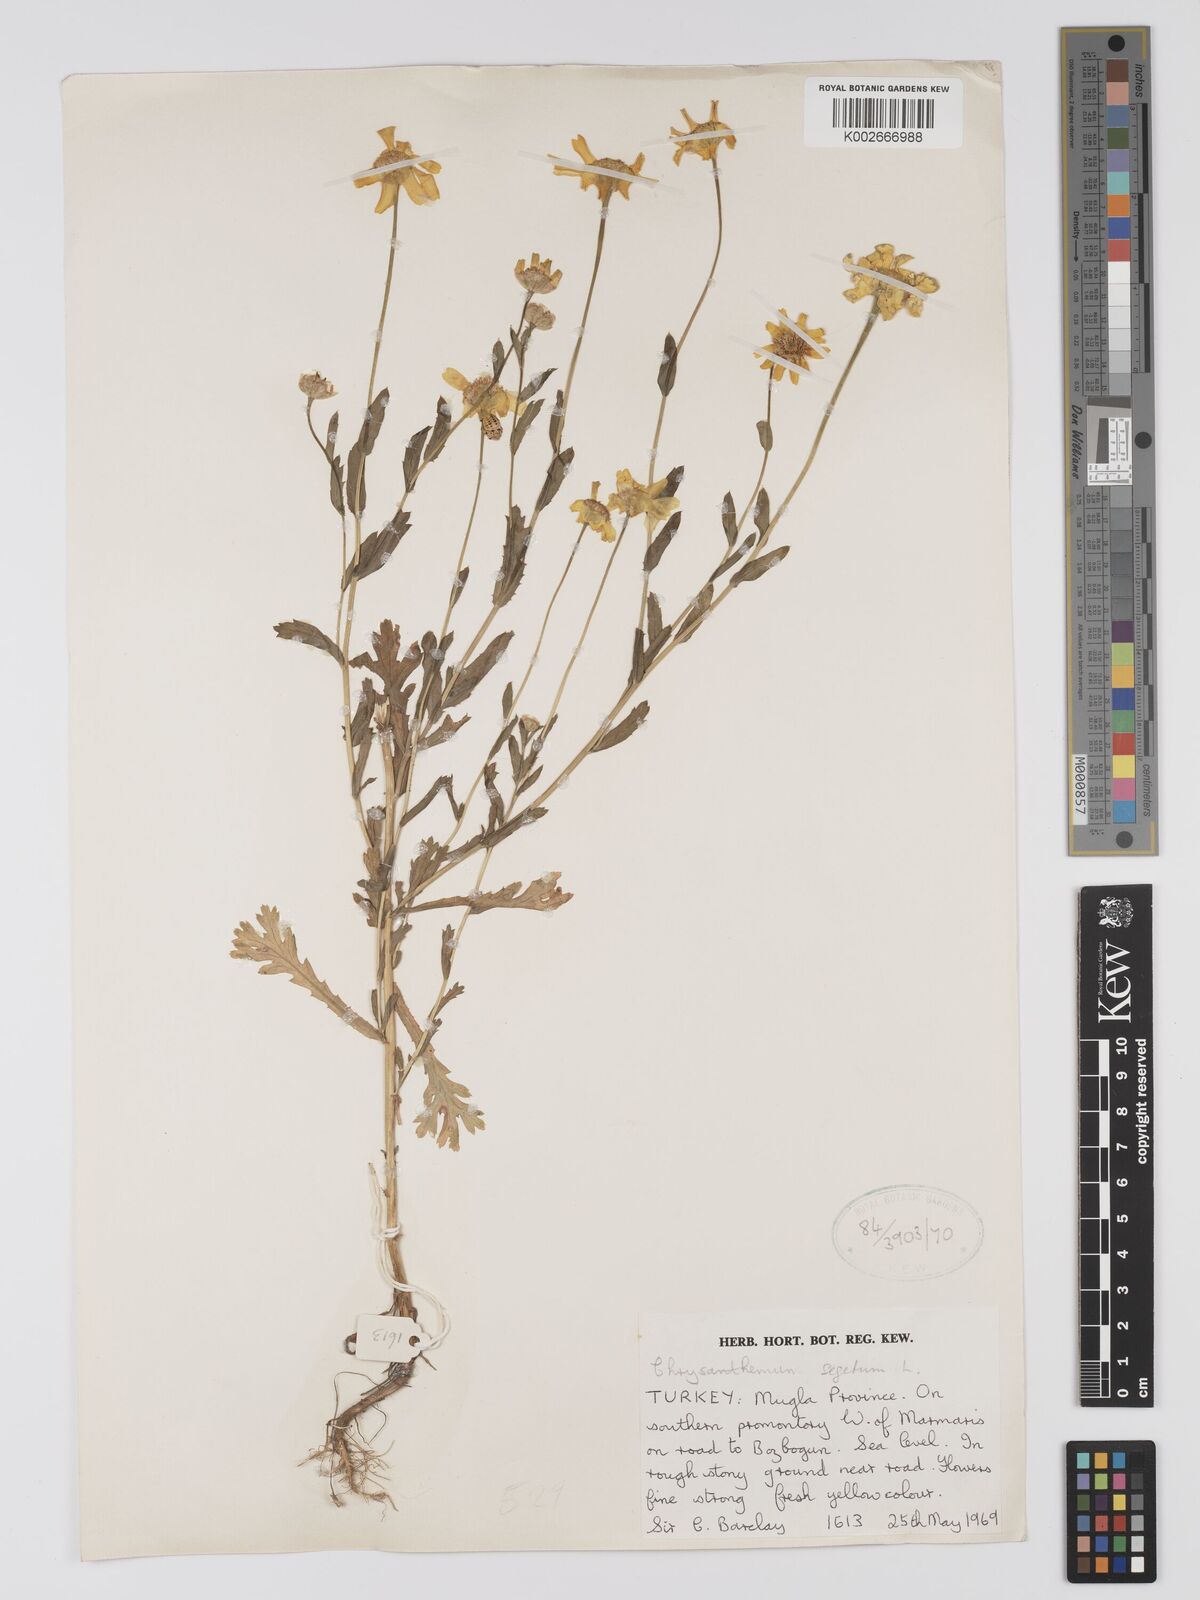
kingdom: Plantae
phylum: Tracheophyta
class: Magnoliopsida
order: Asterales
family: Asteraceae
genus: Glebionis
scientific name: Glebionis segetum
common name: Corndaisy
